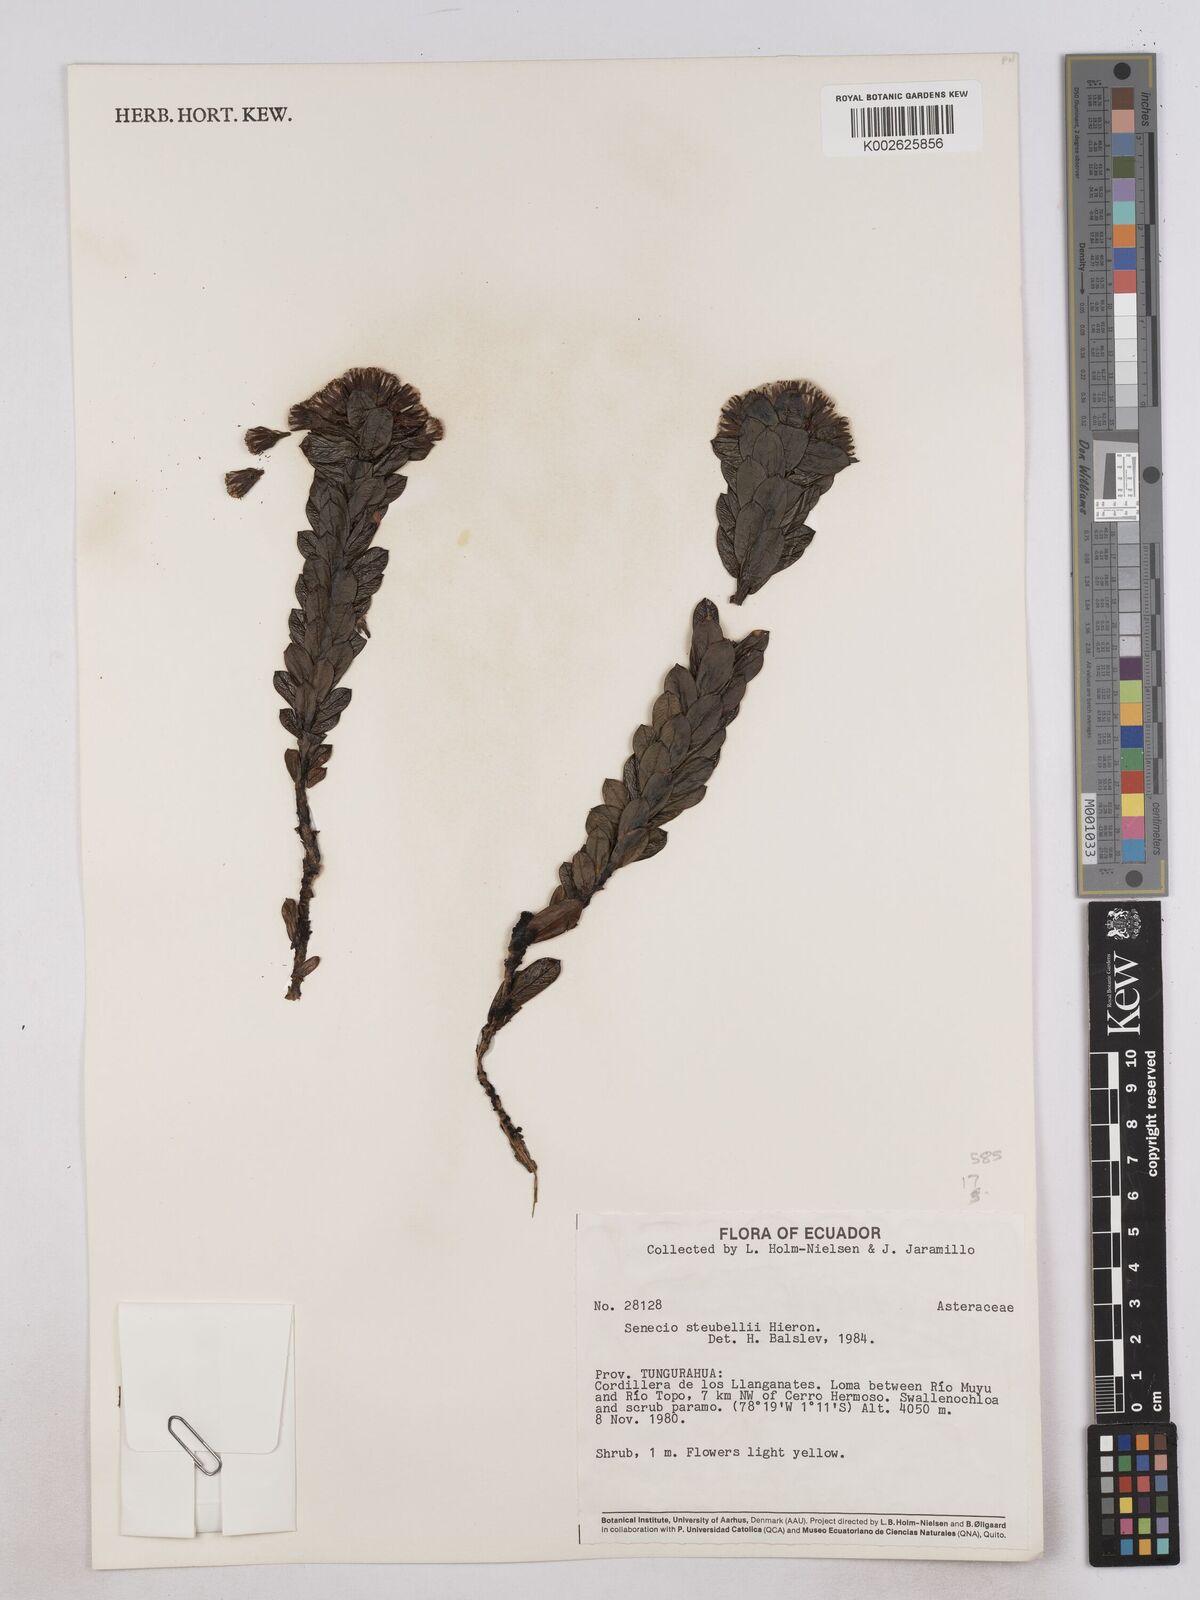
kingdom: Plantae
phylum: Tracheophyta
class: Magnoliopsida
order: Asterales
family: Asteraceae
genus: Monticalia
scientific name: Monticalia stuebelii
